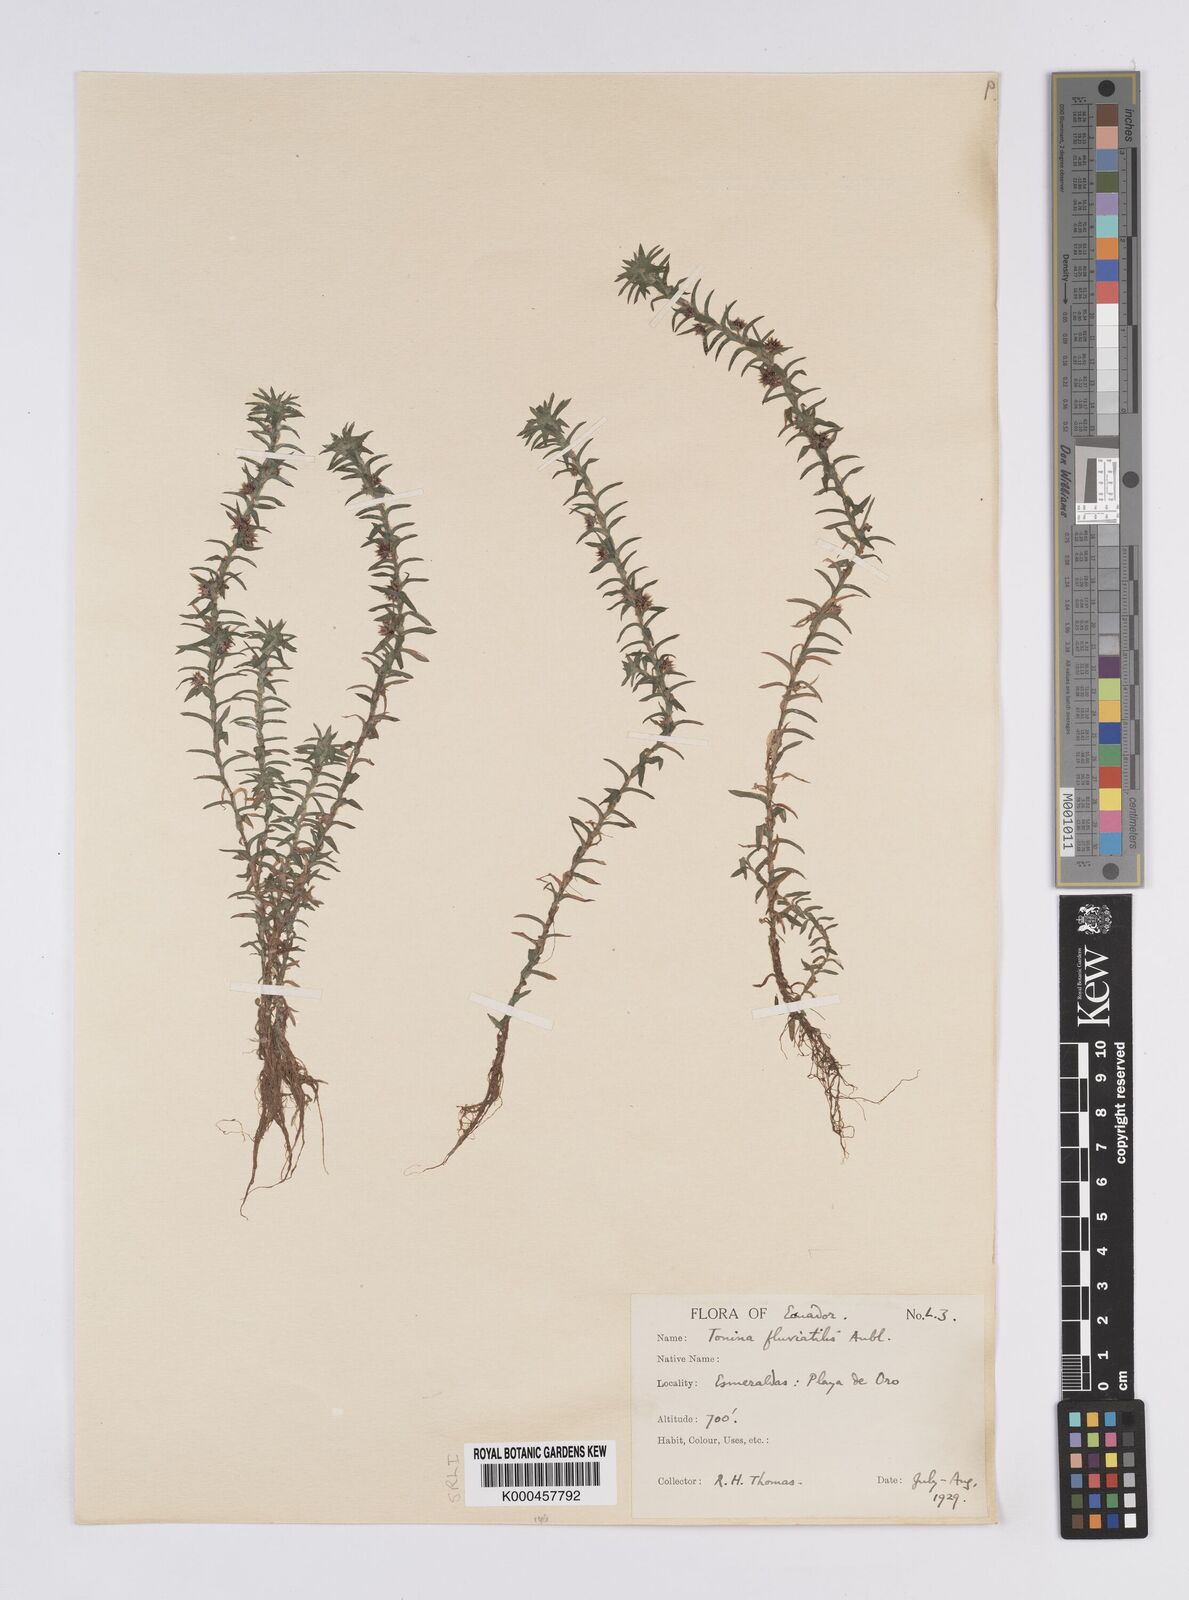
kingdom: Plantae
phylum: Tracheophyta
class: Liliopsida
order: Poales
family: Eriocaulaceae
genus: Paepalanthus
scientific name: Paepalanthus fluviatilis
